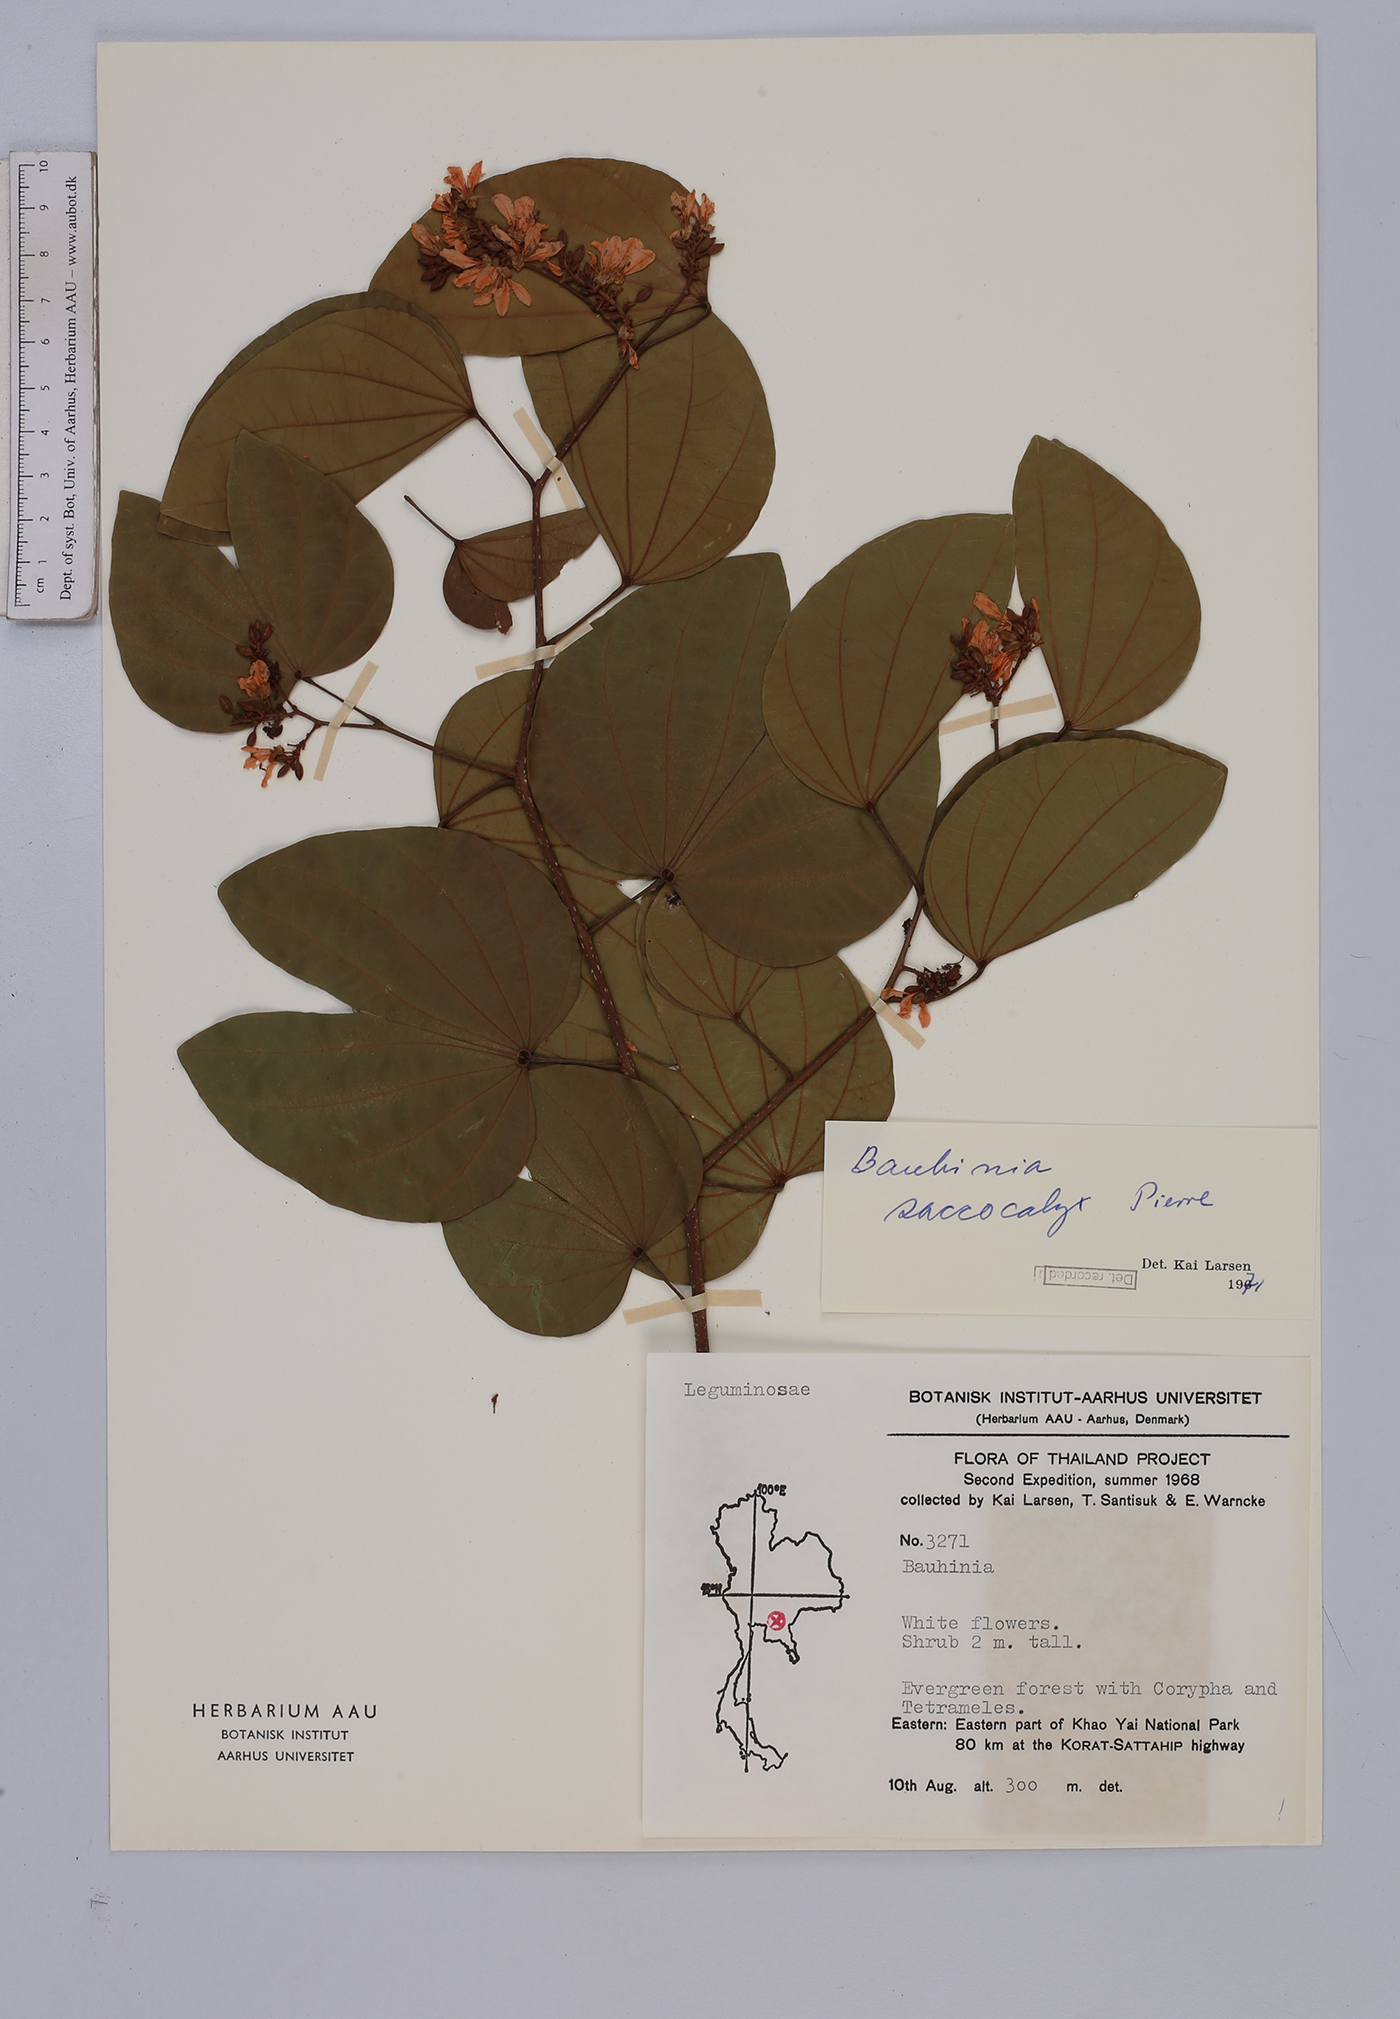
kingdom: Plantae
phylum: Tracheophyta
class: Magnoliopsida
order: Fabales
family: Fabaceae
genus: Bauhinia
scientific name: Bauhinia saccocalyx
